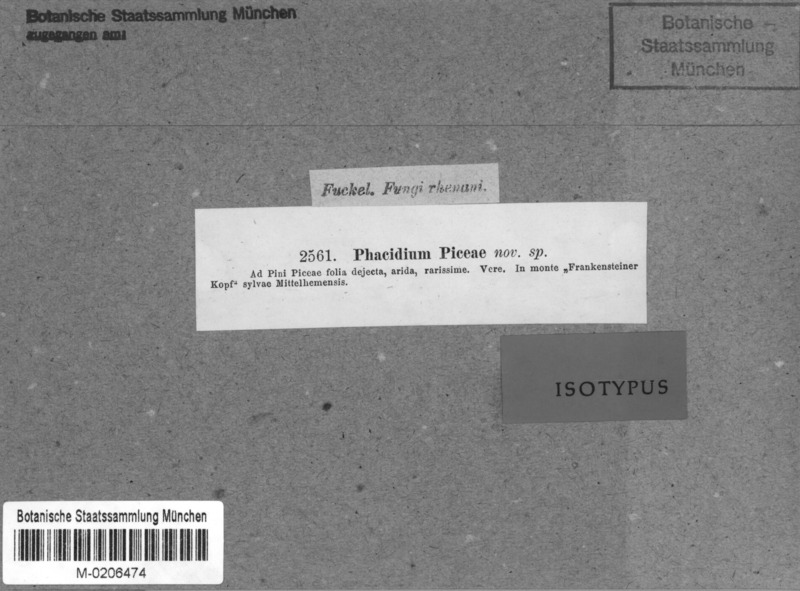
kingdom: Fungi
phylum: Ascomycota
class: Leotiomycetes
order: Rhytismatales
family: Rhytismataceae
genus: Lophodermium
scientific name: Lophodermium piceae
